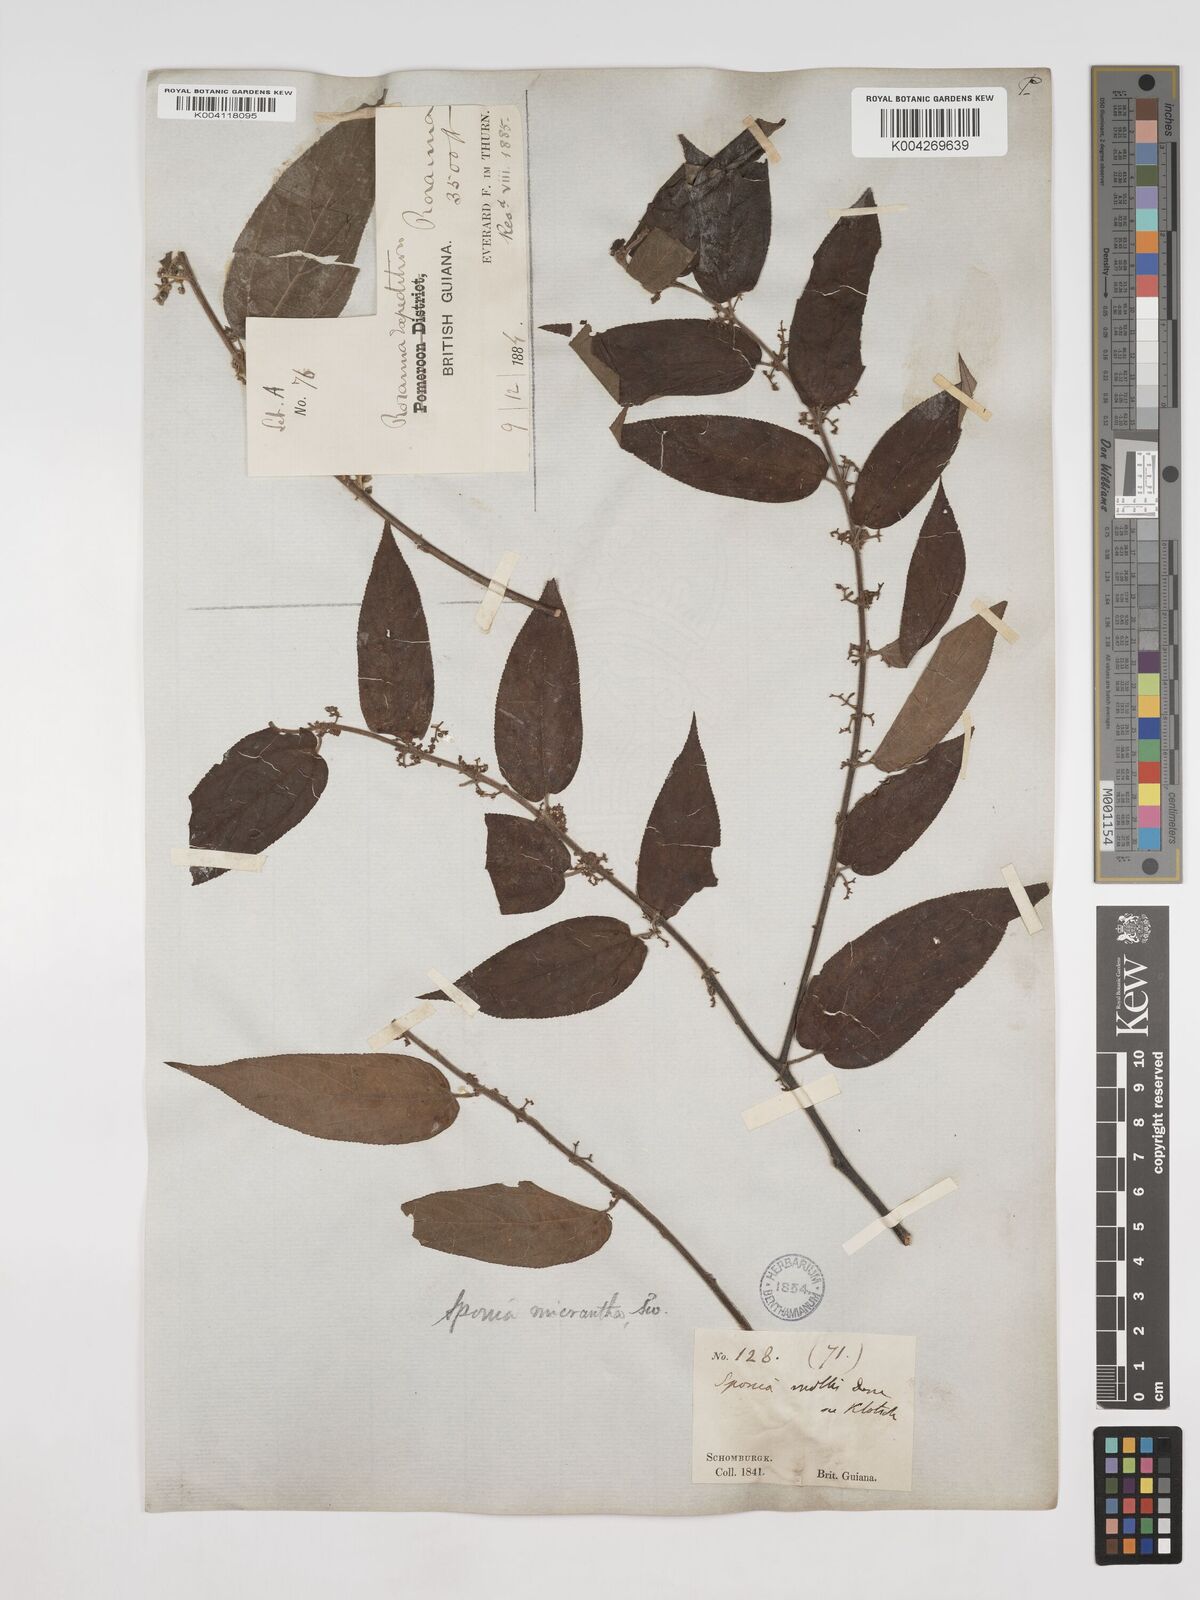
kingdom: Plantae
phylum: Tracheophyta
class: Magnoliopsida
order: Rosales
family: Cannabaceae
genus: Trema
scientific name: Trema micranthum
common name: Jamaican nettletree
